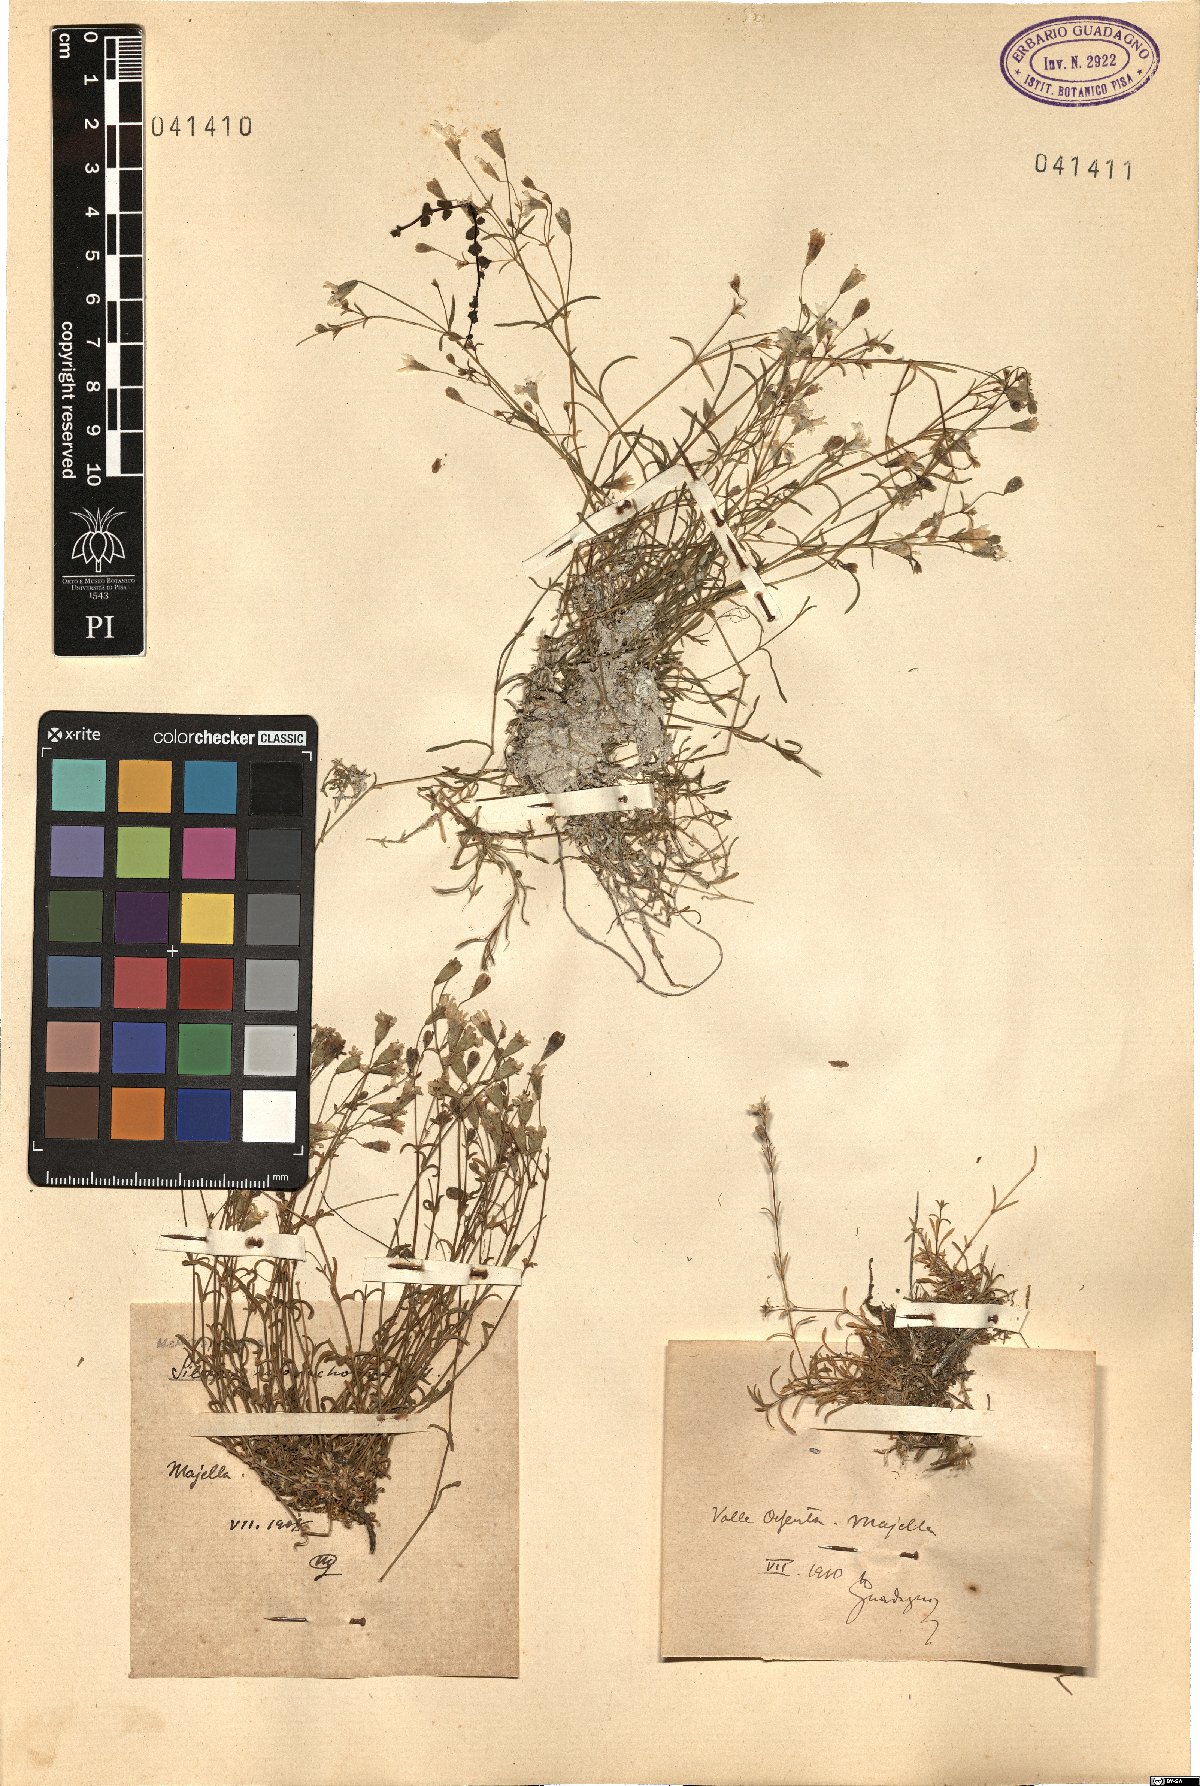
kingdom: Plantae
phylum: Tracheophyta
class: Magnoliopsida
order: Caryophyllales
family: Caryophyllaceae
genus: Heliosperma
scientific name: Heliosperma pusillum
